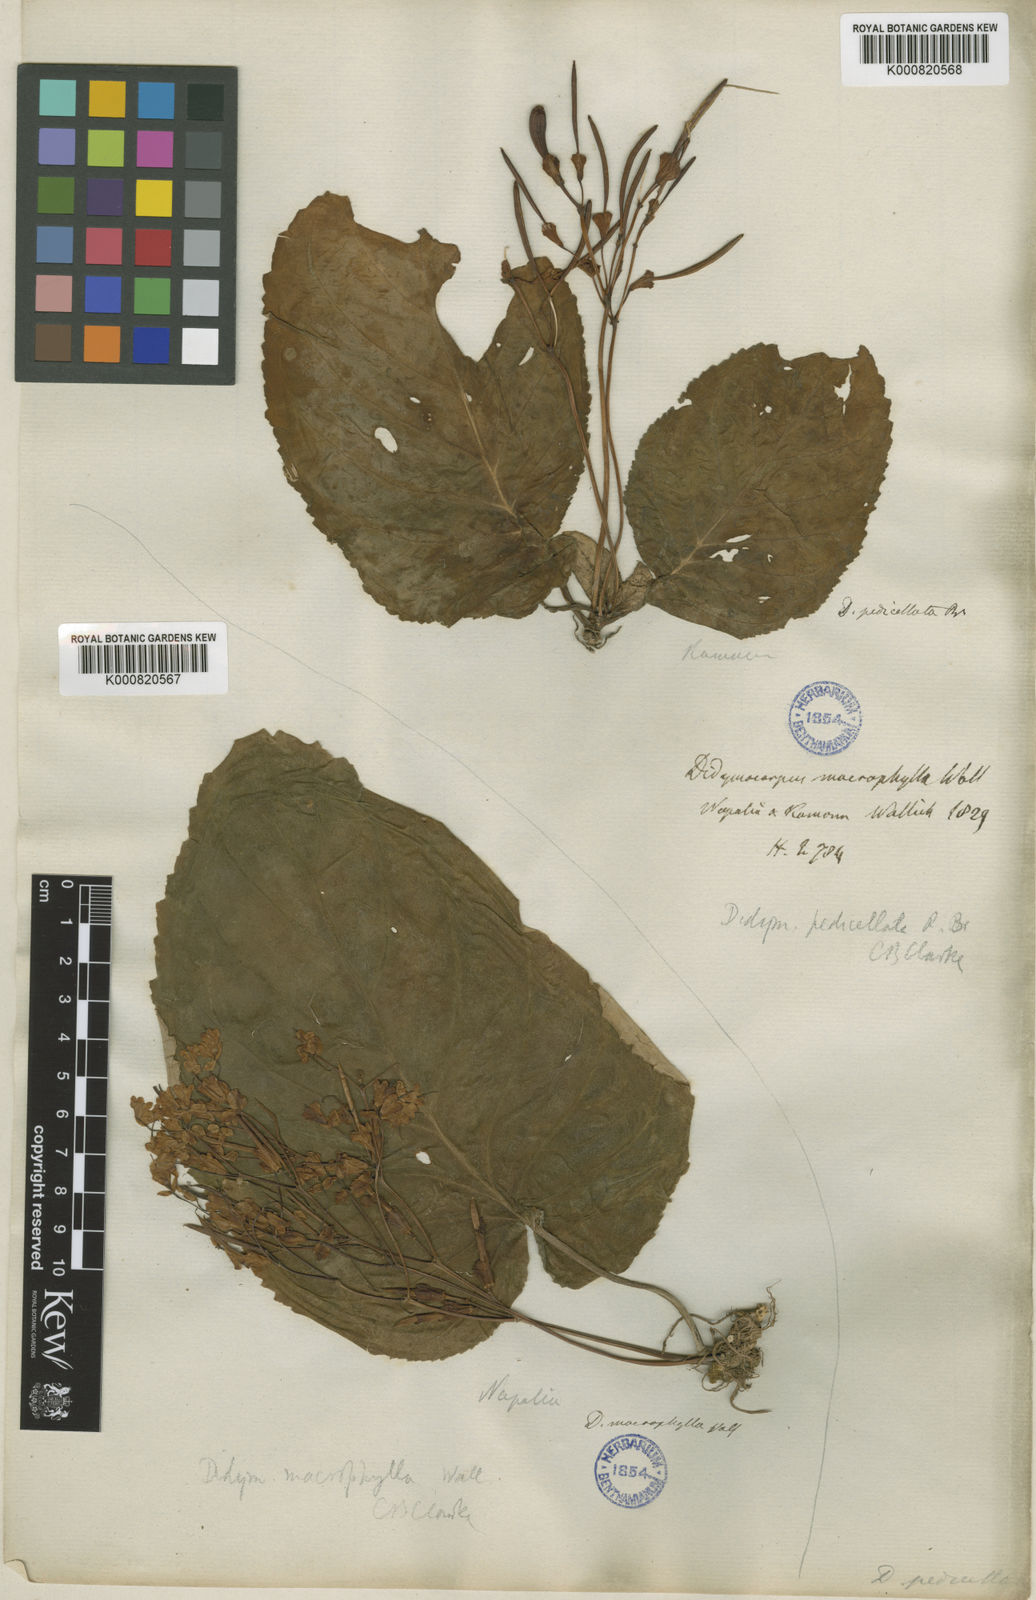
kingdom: Plantae
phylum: Tracheophyta
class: Magnoliopsida
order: Lamiales
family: Gesneriaceae
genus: Didymocarpus
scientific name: Didymocarpus macrophyllus
